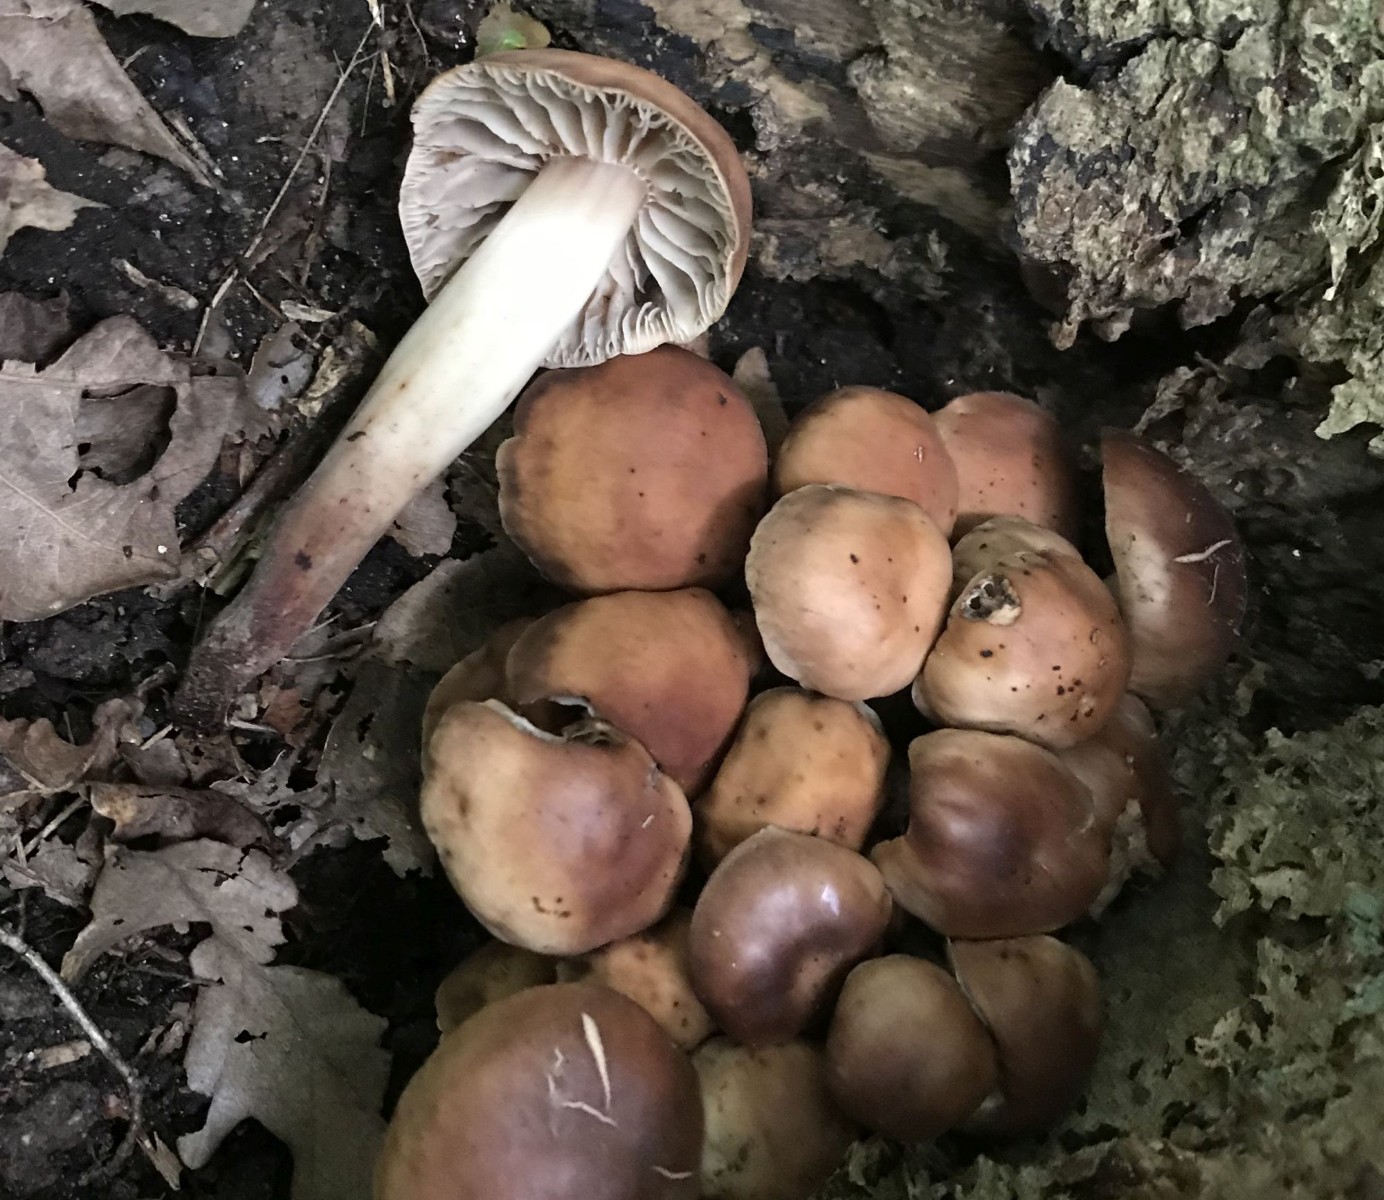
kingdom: Fungi
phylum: Basidiomycota
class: Agaricomycetes
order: Agaricales
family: Omphalotaceae
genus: Gymnopus
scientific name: Gymnopus fusipes
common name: tenstokket fladhat
